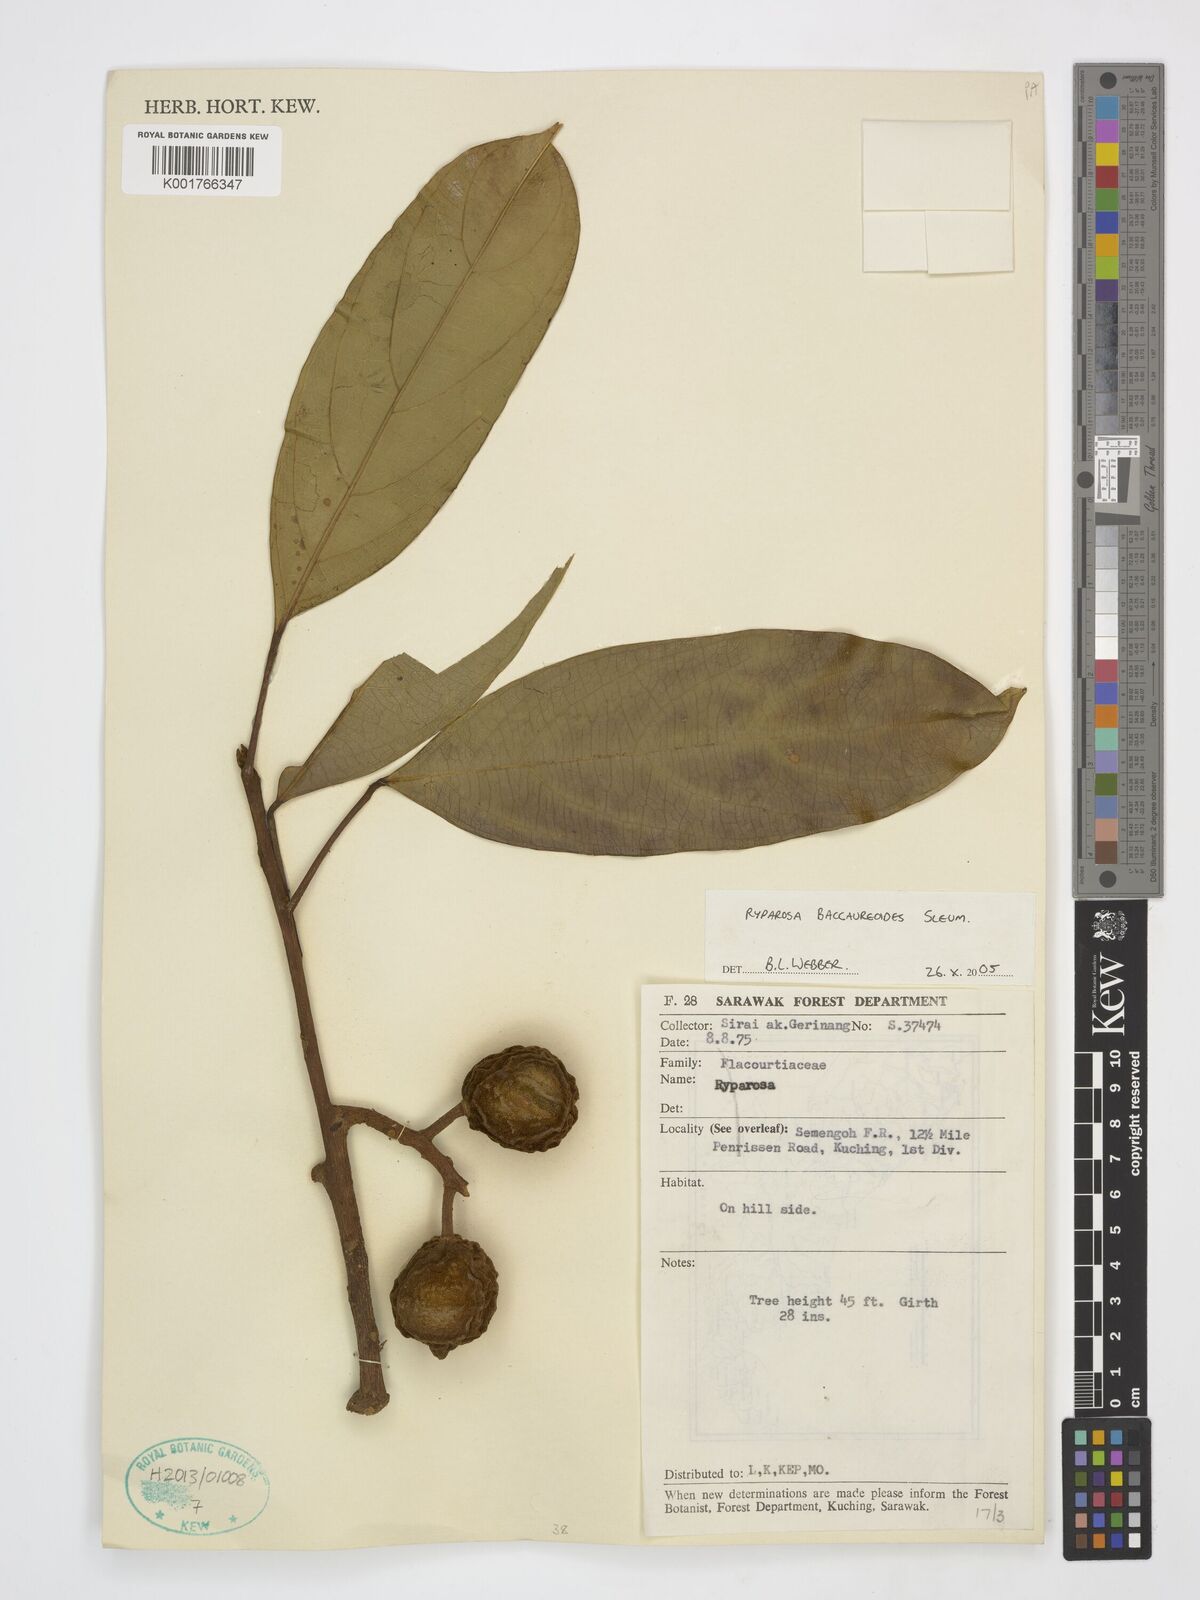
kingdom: Plantae
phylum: Tracheophyta
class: Magnoliopsida
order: Malpighiales
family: Achariaceae
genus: Ryparosa
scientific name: Ryparosa baccaureoides
